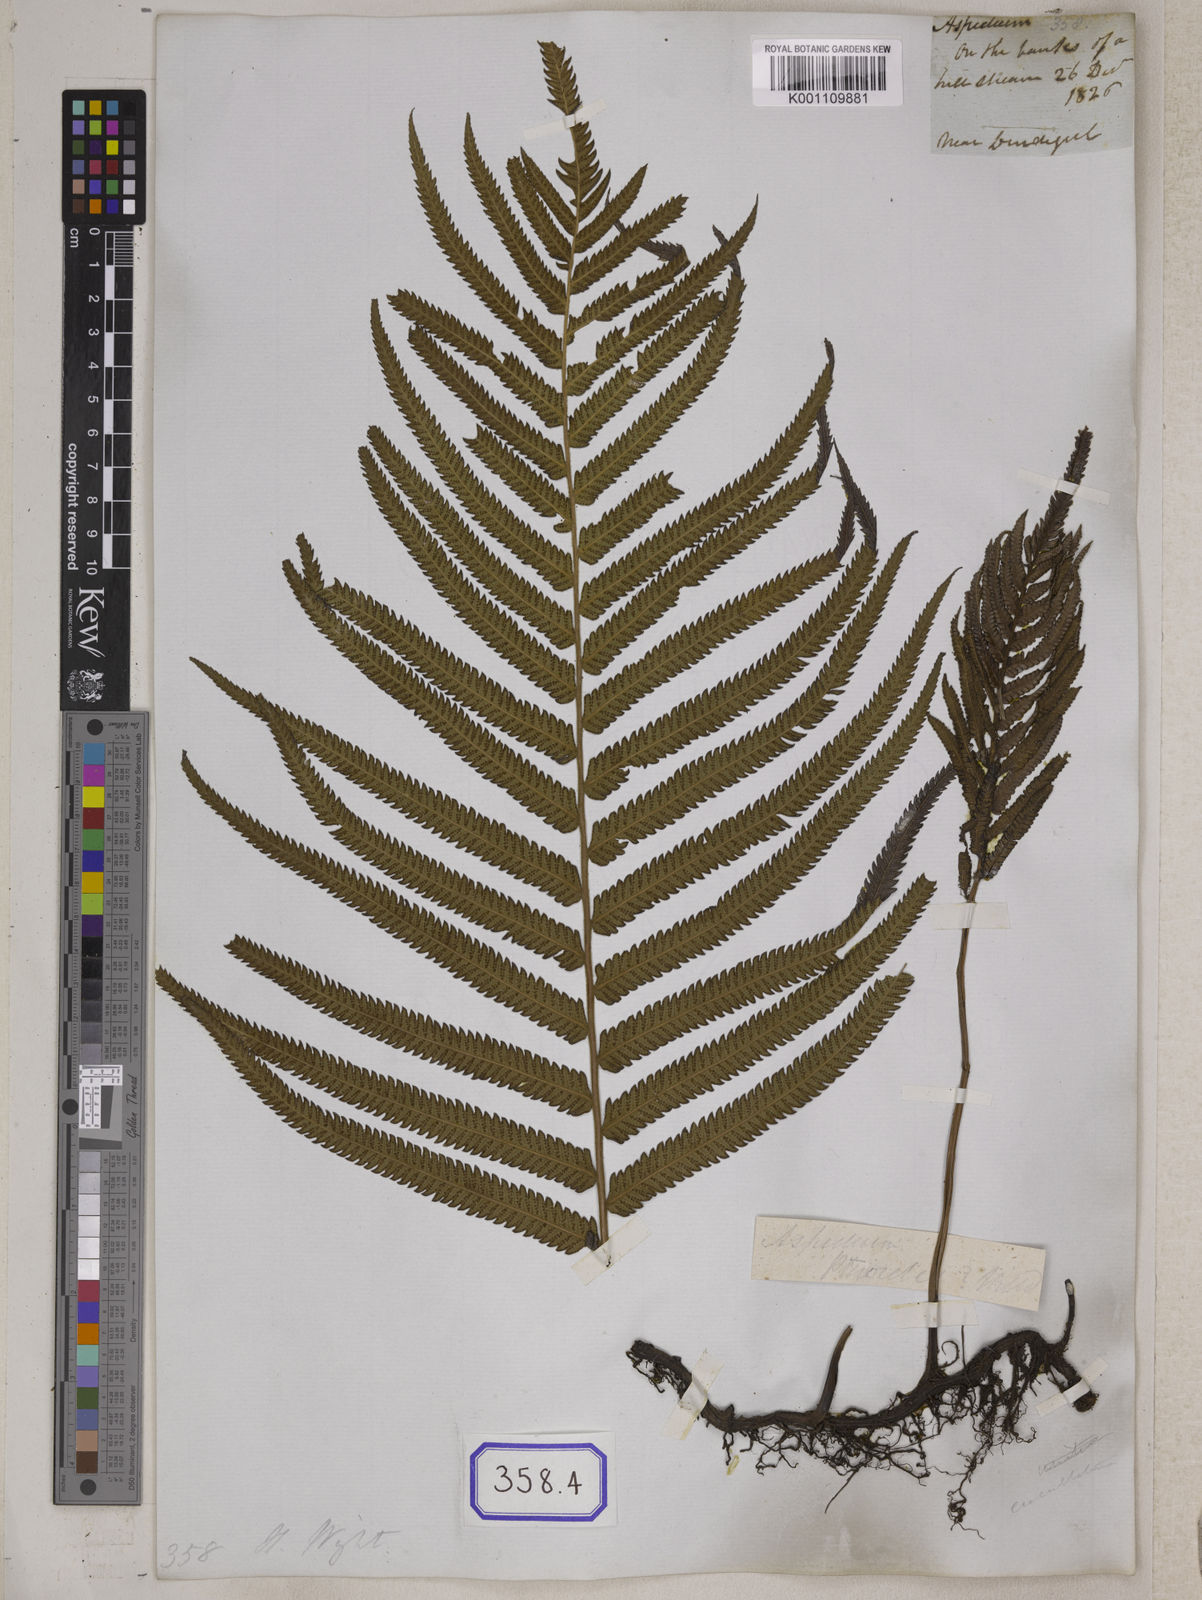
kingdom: Plantae
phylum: Tracheophyta
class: Polypodiopsida
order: Polypodiales
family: Thelypteridaceae
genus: Cyclosorus
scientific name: Cyclosorus interruptus
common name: Neke fern
